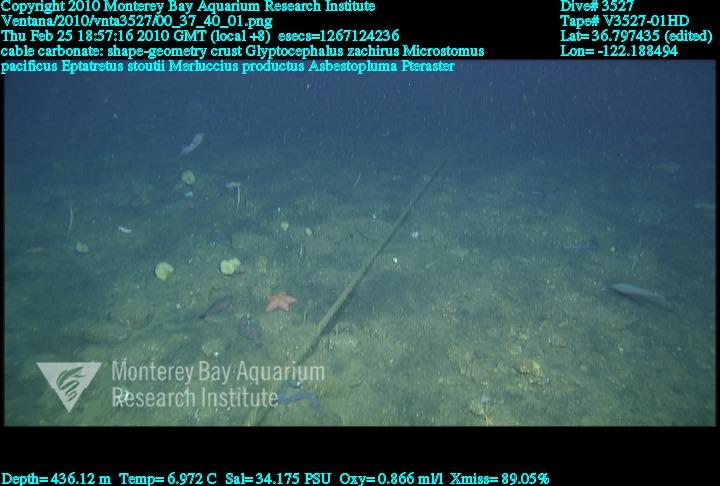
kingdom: Animalia
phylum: Porifera
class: Demospongiae
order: Poecilosclerida
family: Cladorhizidae
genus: Asbestopluma
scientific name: Asbestopluma
